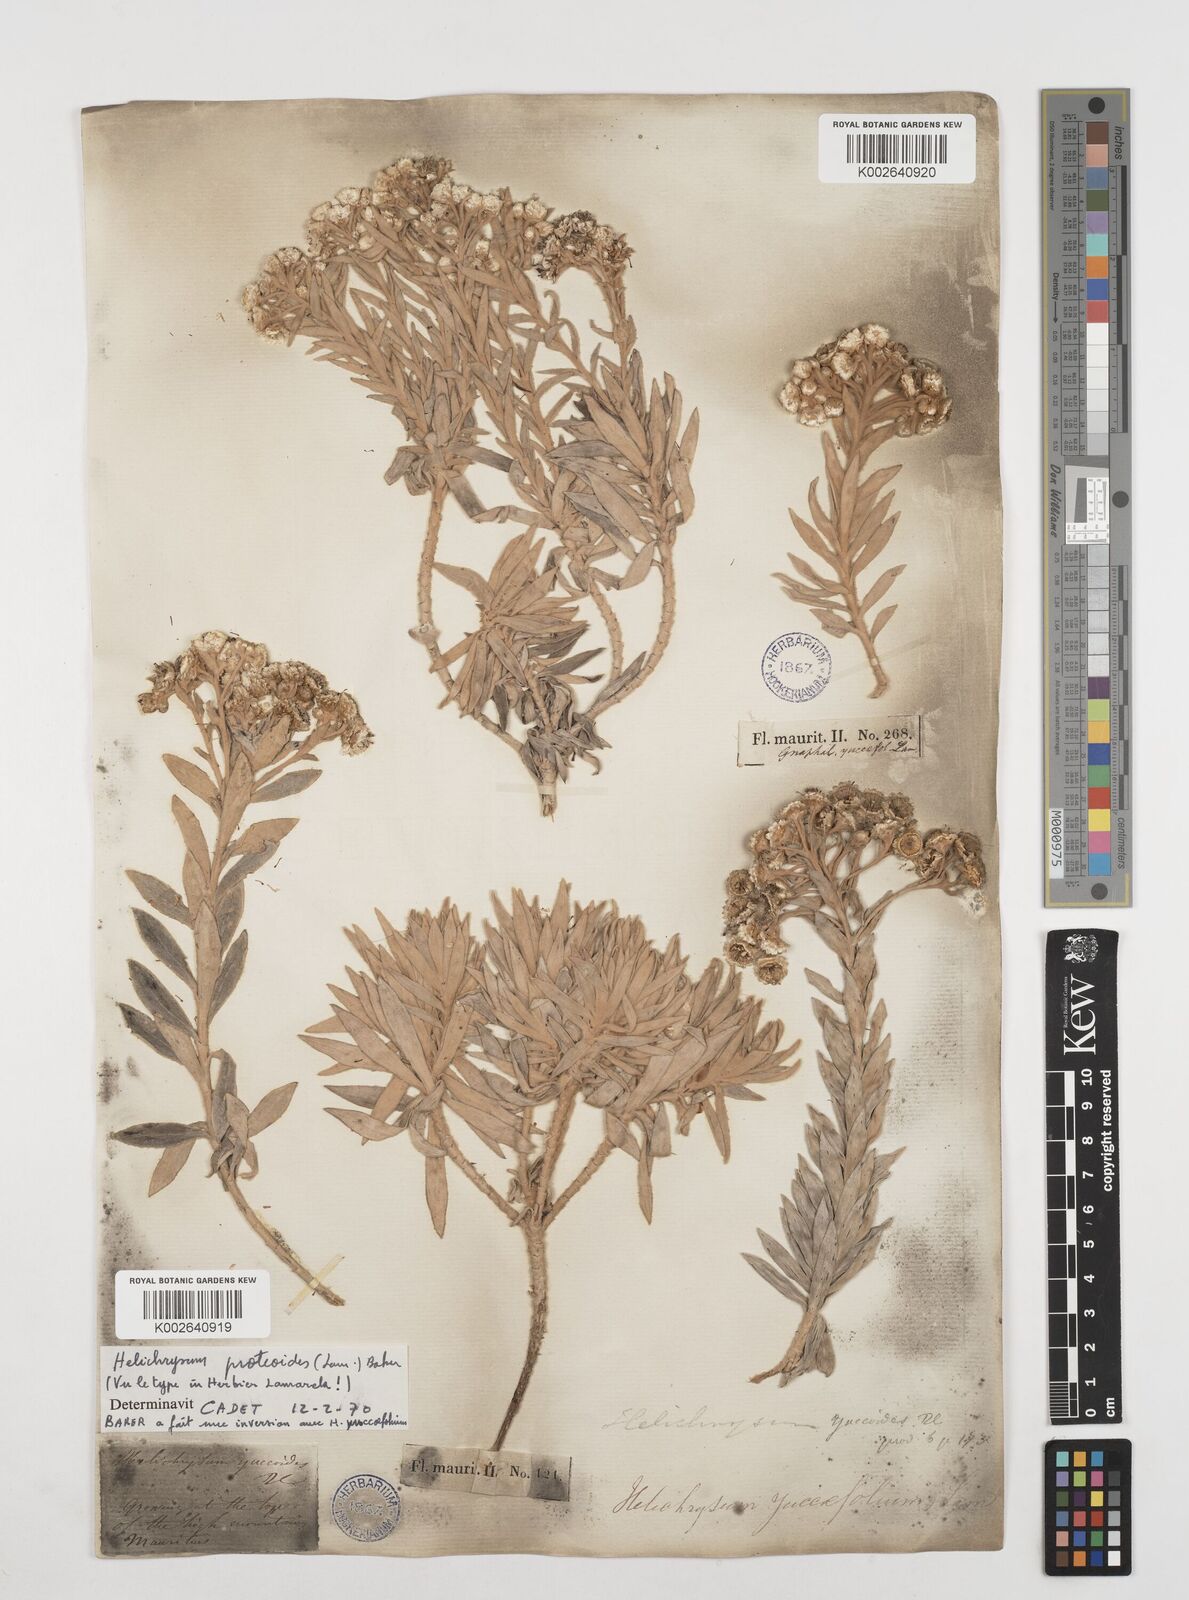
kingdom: Plantae
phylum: Tracheophyta
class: Magnoliopsida
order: Asterales
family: Asteraceae
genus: Helichrysum
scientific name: Helichrysum proteoides
